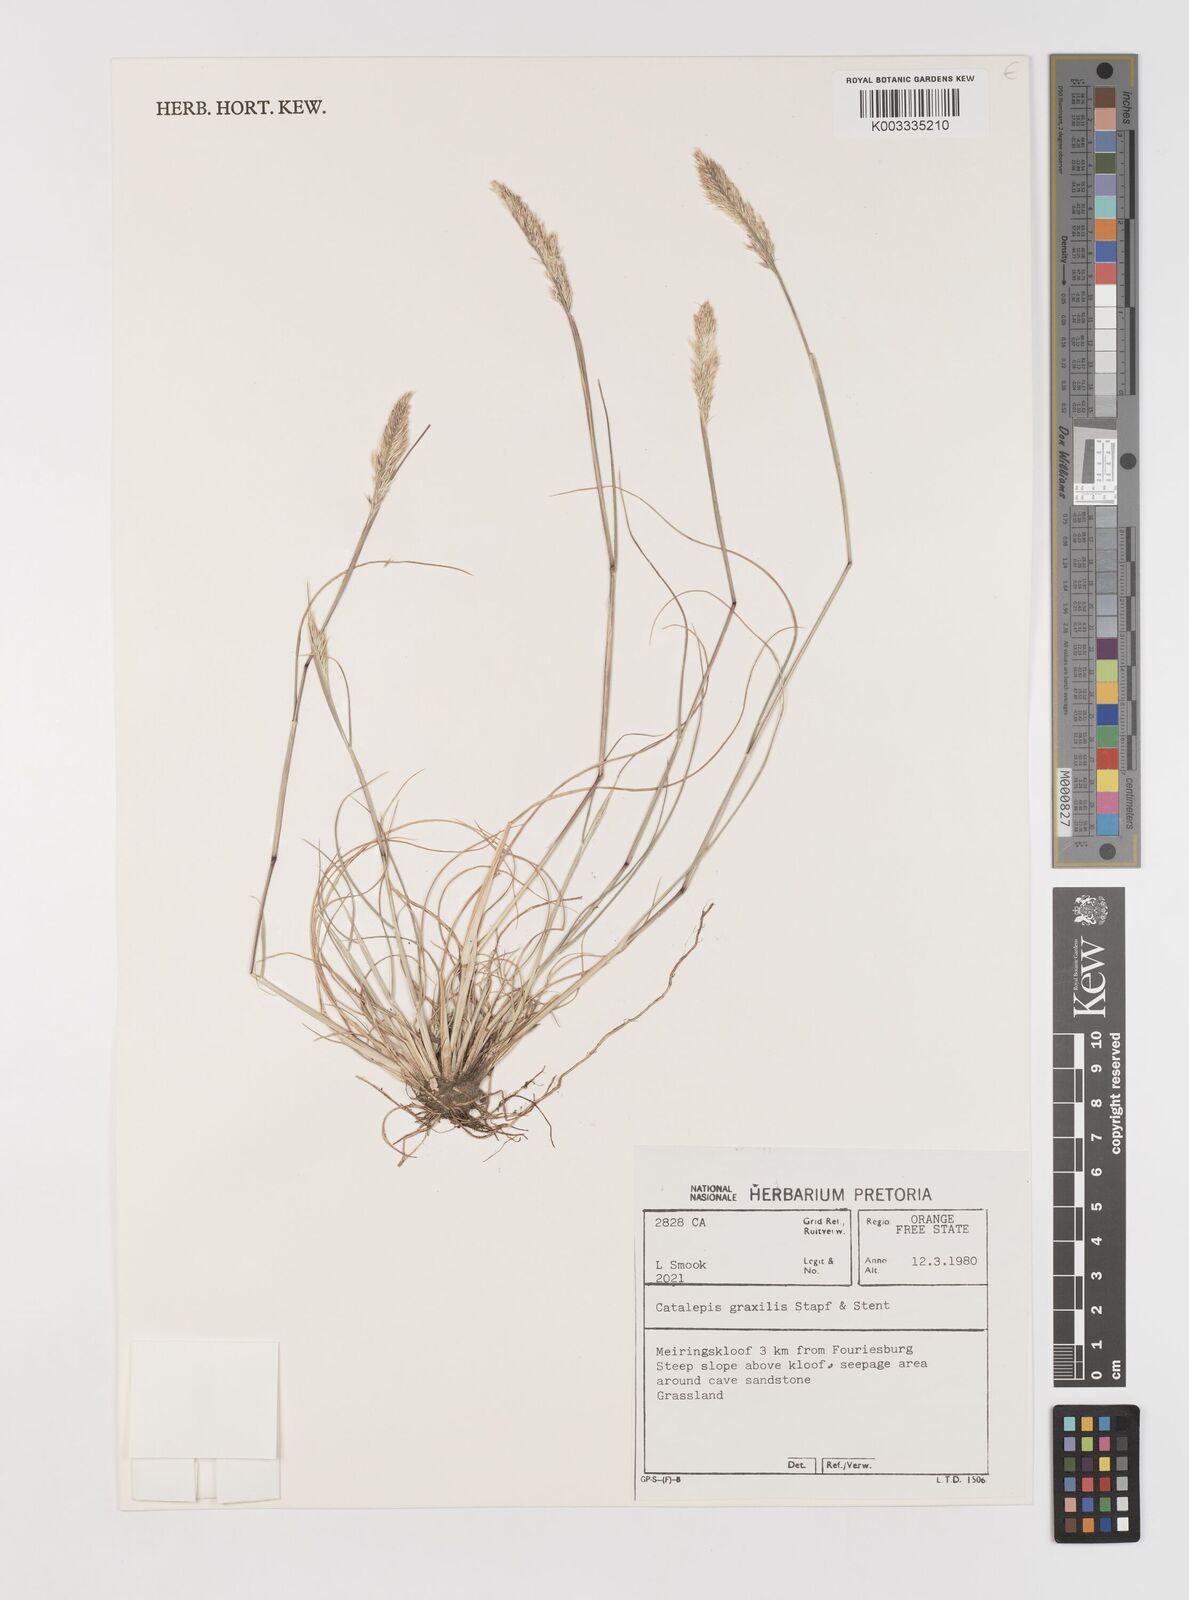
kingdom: Plantae
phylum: Tracheophyta
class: Liliopsida
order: Poales
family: Poaceae
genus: Catalepis
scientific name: Catalepis gracilis
